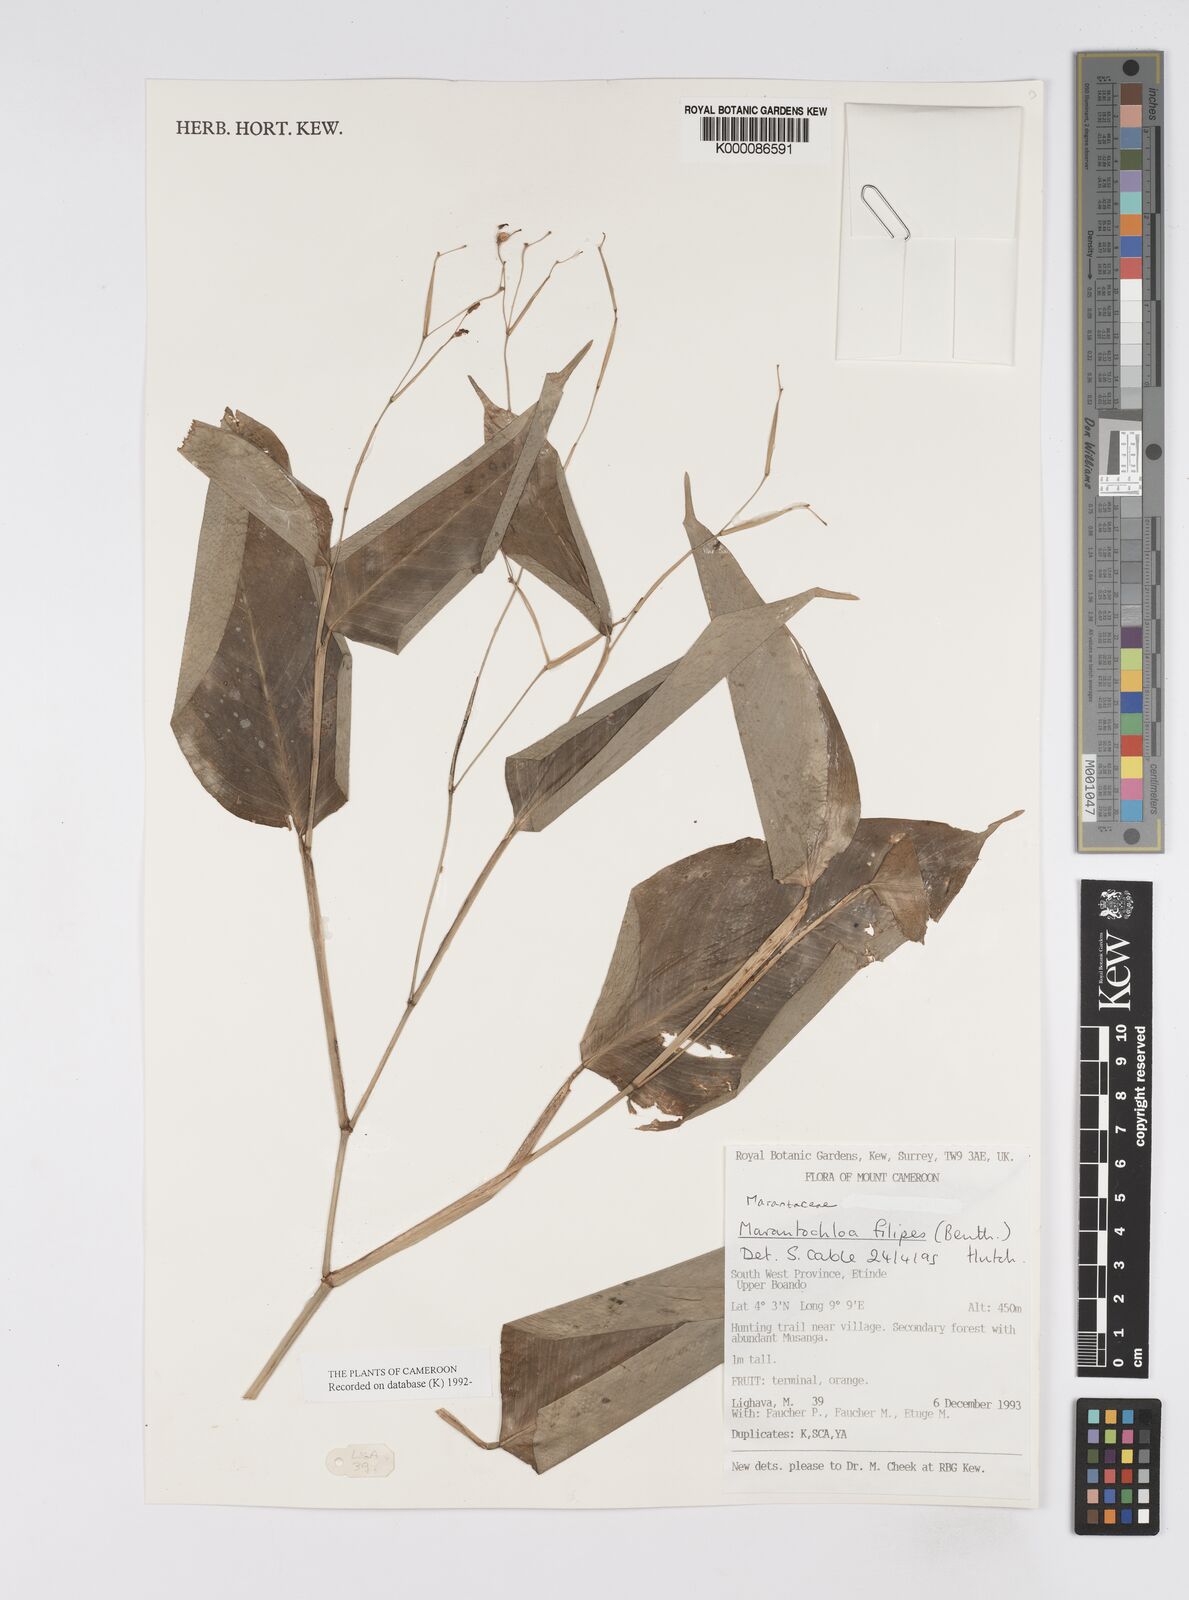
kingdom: Plantae
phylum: Tracheophyta
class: Liliopsida
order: Zingiberales
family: Marantaceae
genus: Marantochloa
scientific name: Marantochloa filipes
